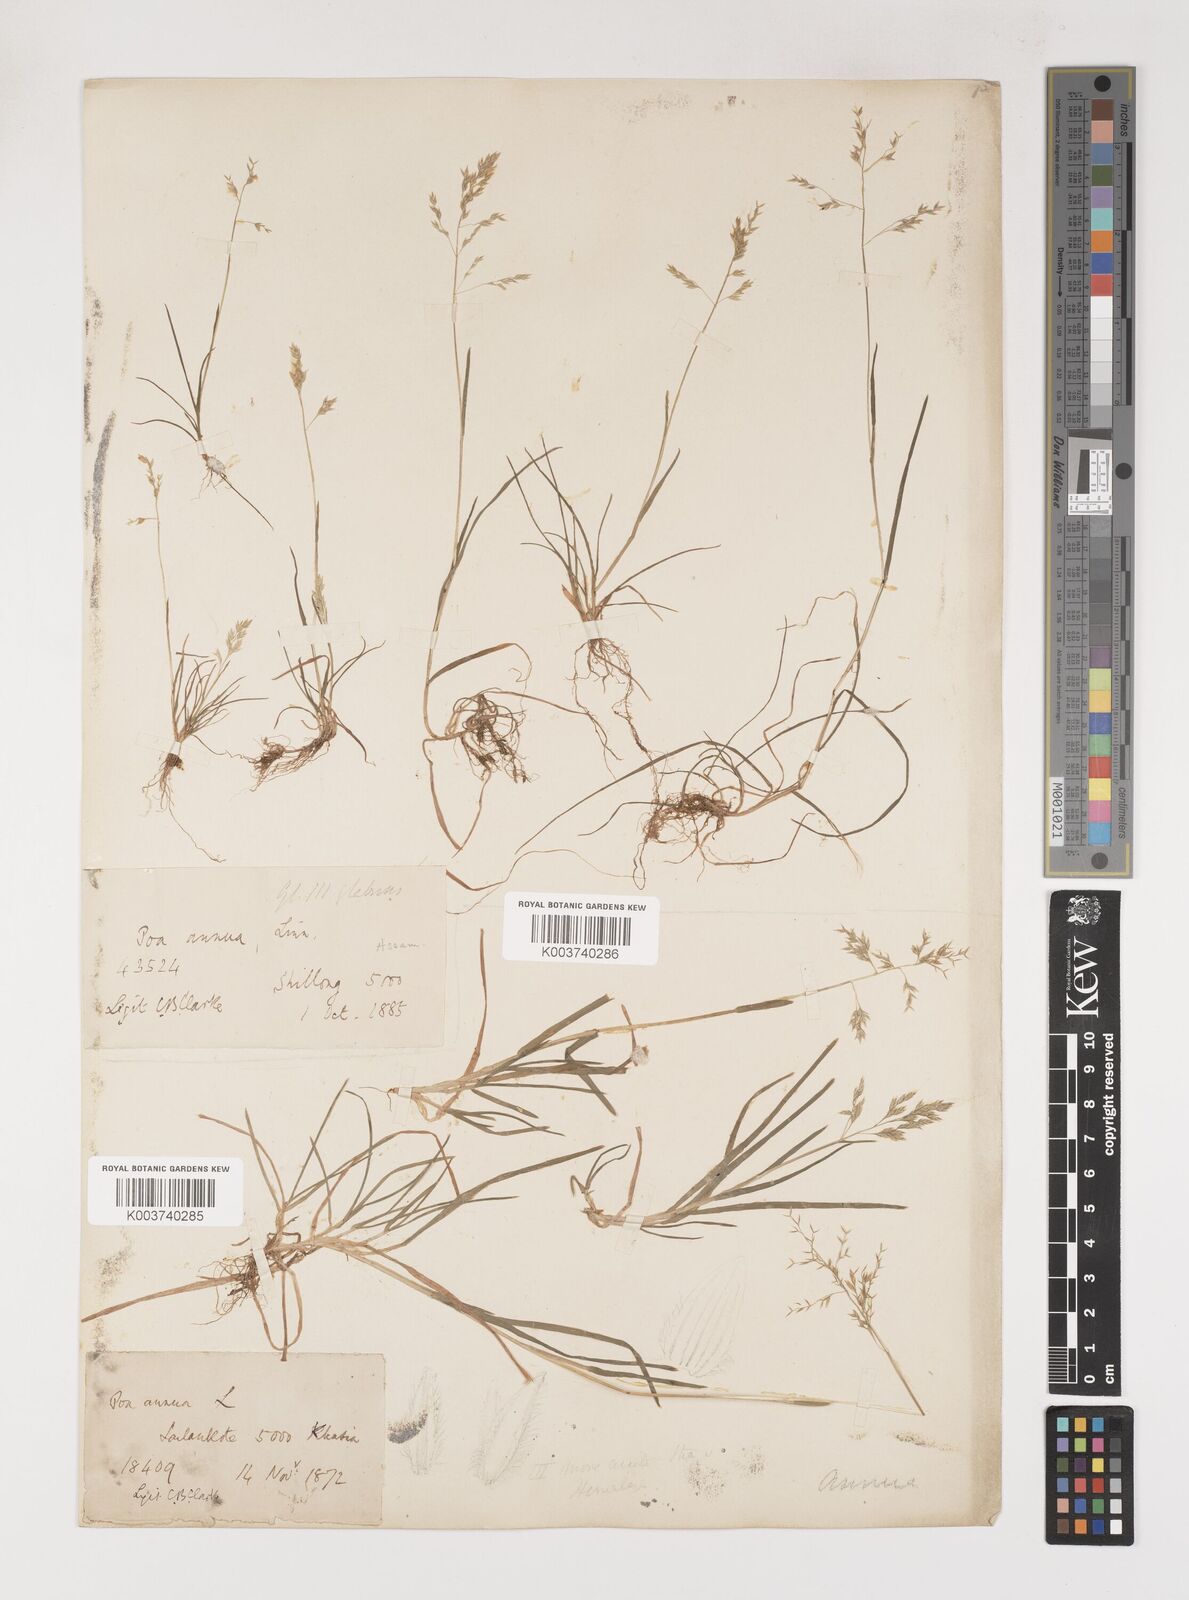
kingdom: Plantae
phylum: Tracheophyta
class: Liliopsida
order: Poales
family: Poaceae
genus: Poa
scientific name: Poa annua
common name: Annual bluegrass
